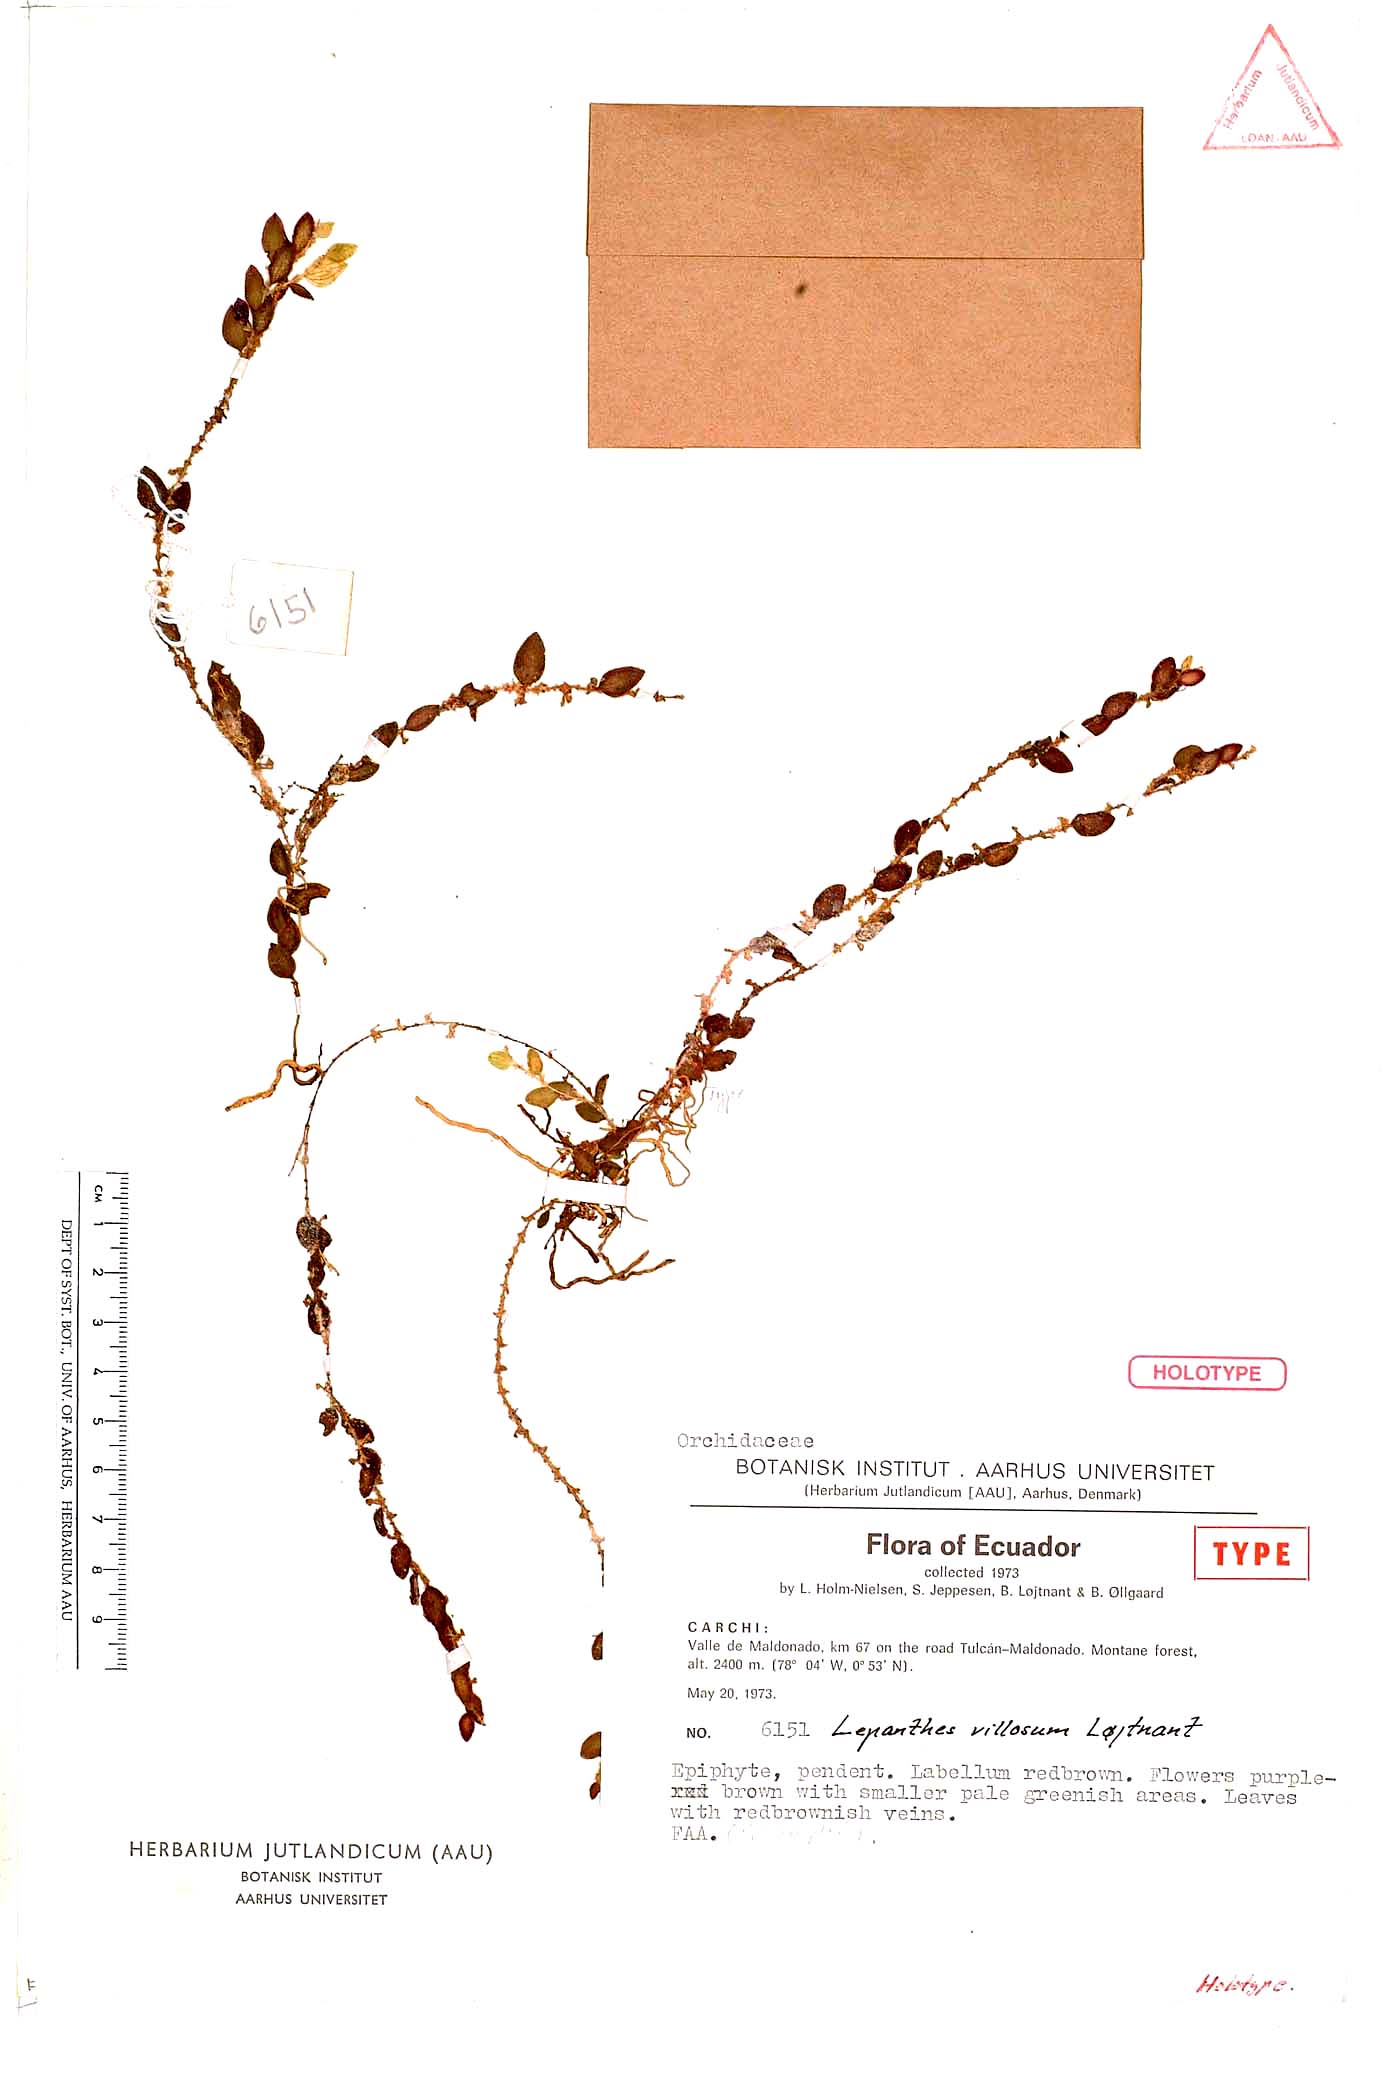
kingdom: Plantae
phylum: Tracheophyta
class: Liliopsida
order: Asparagales
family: Orchidaceae
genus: Andinia
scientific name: Andinia villosa
